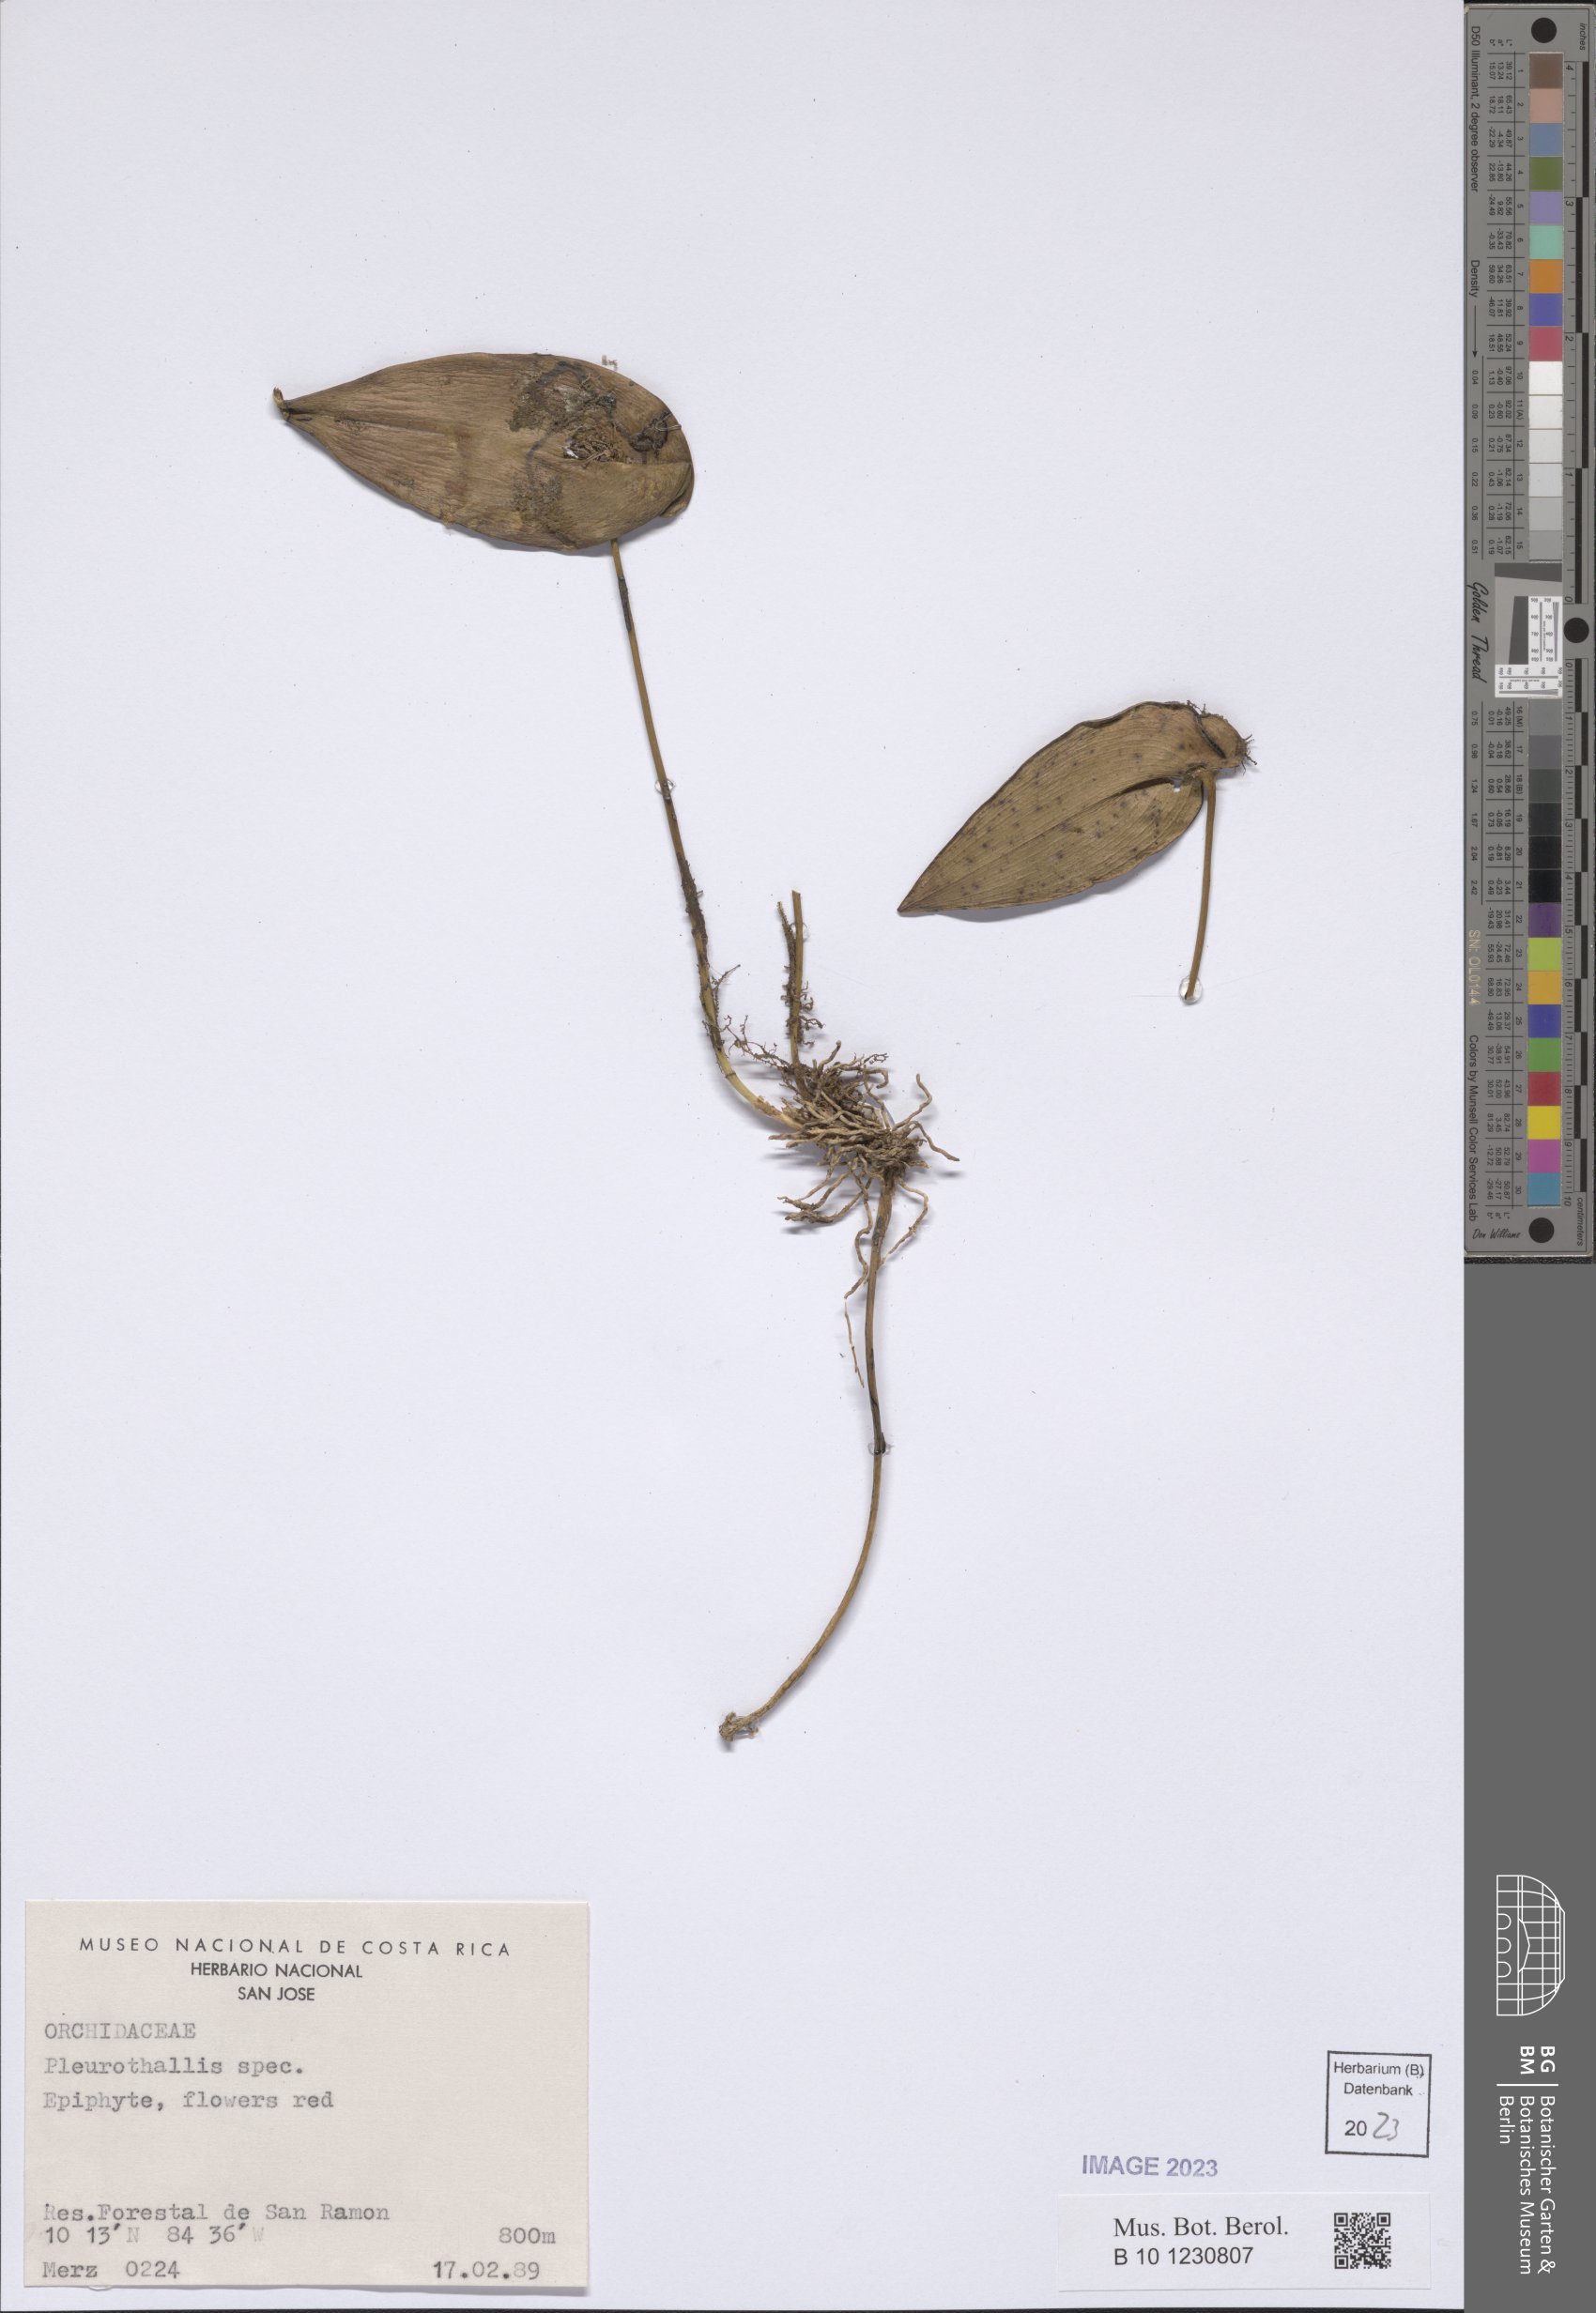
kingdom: Plantae
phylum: Tracheophyta
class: Liliopsida
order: Asparagales
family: Orchidaceae
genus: Pleurothallis
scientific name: Pleurothallis
